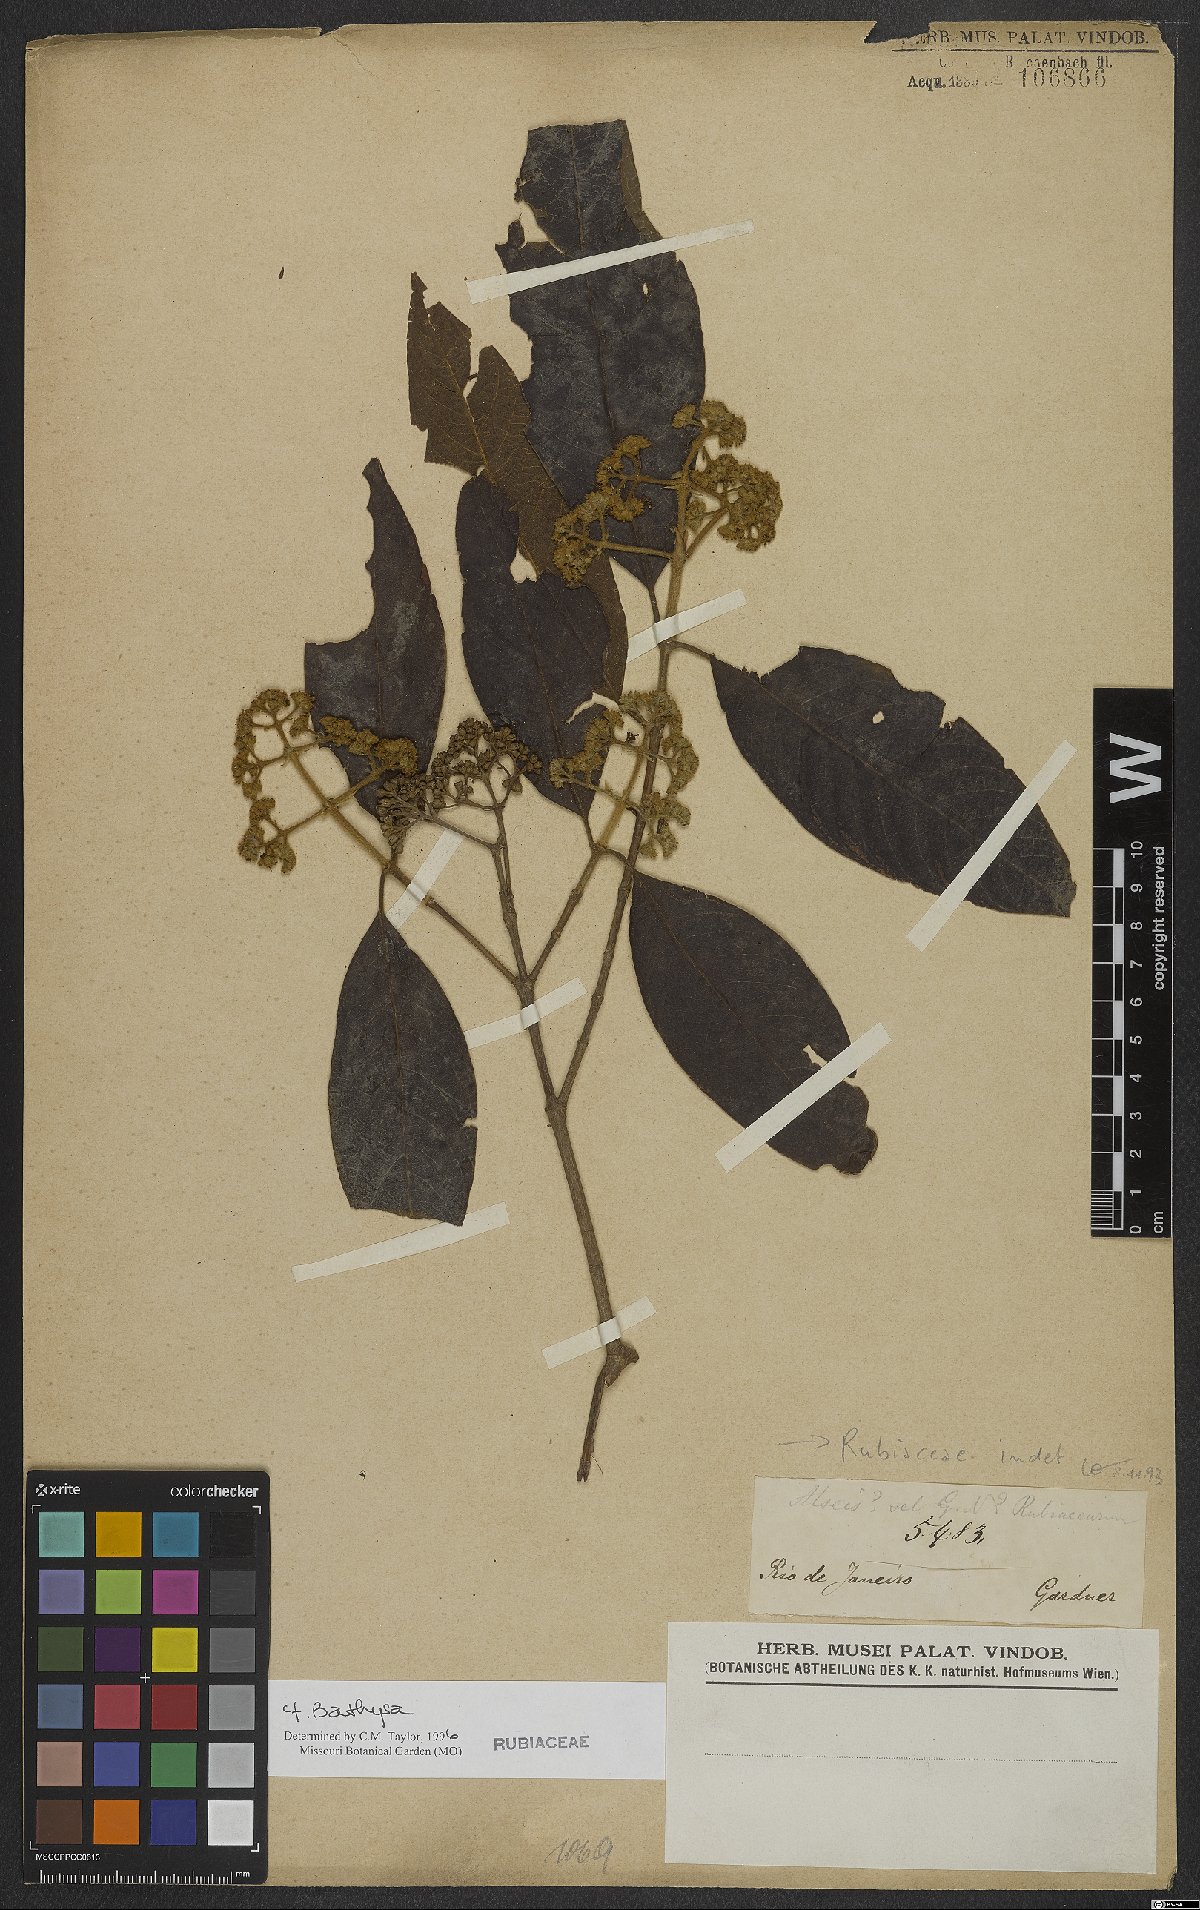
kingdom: Plantae
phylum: Tracheophyta
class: Magnoliopsida
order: Gentianales
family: Rubiaceae
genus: Bathysa
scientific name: Bathysa
